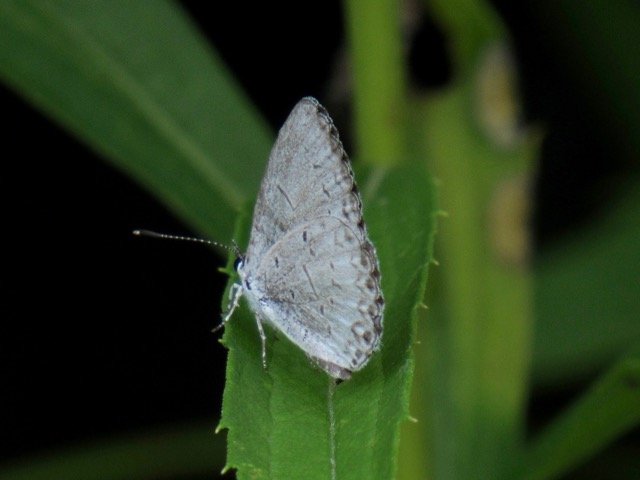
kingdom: Animalia
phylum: Arthropoda
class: Insecta
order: Lepidoptera
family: Lycaenidae
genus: Cyaniris
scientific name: Cyaniris neglecta
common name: Summer Azure
